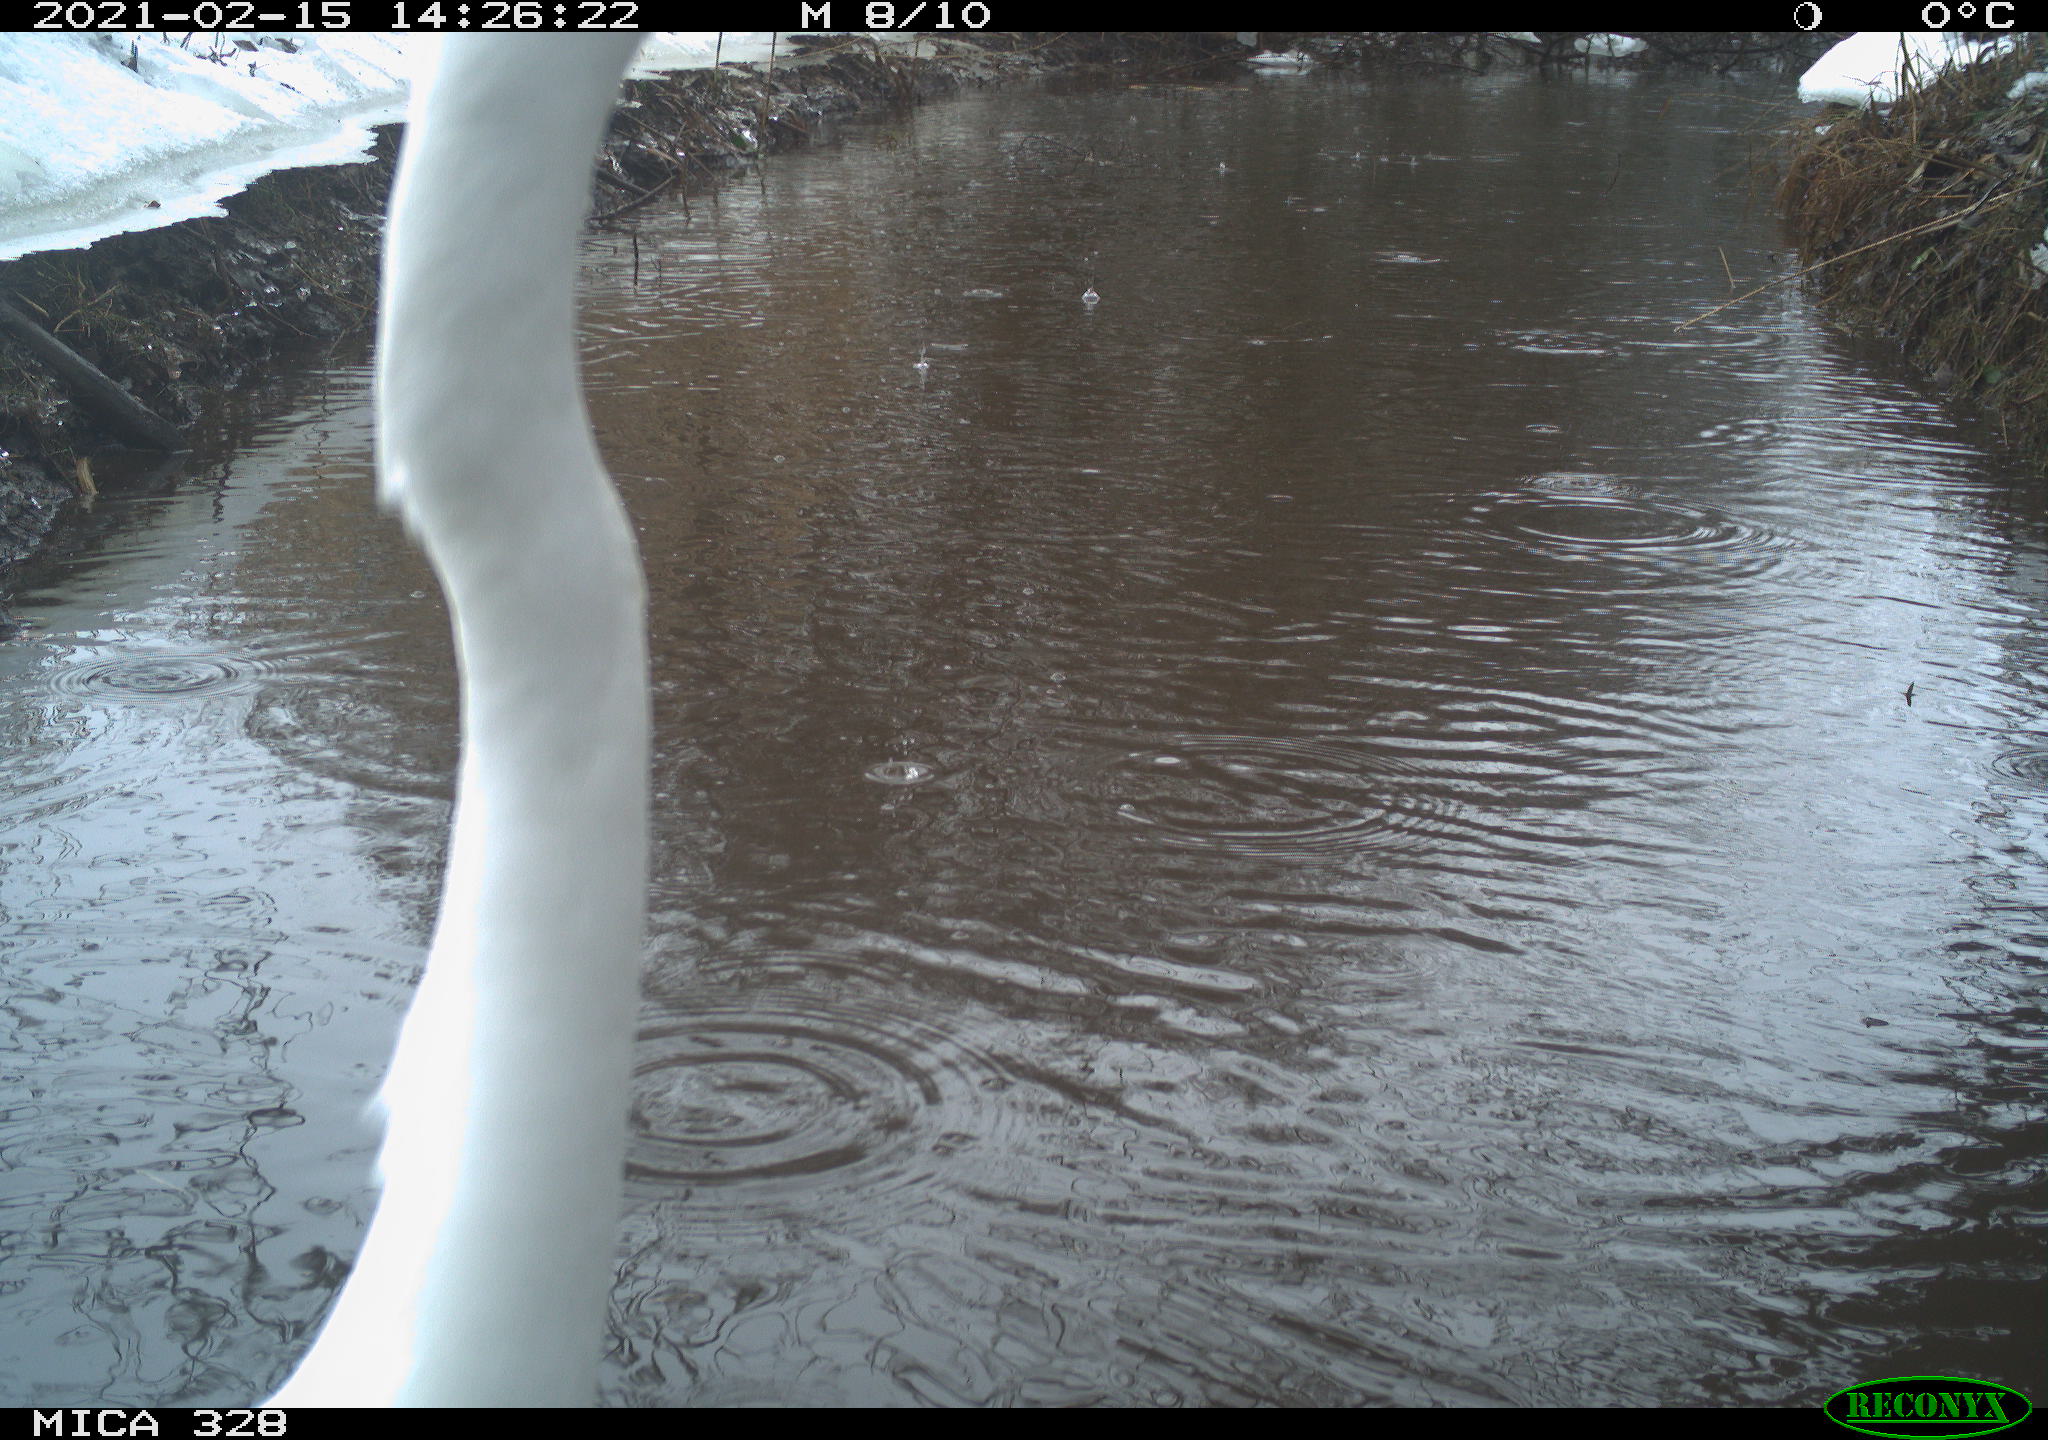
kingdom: Animalia
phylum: Chordata
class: Aves
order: Pelecaniformes
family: Ardeidae
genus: Ardea
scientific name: Ardea alba
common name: Great egret
